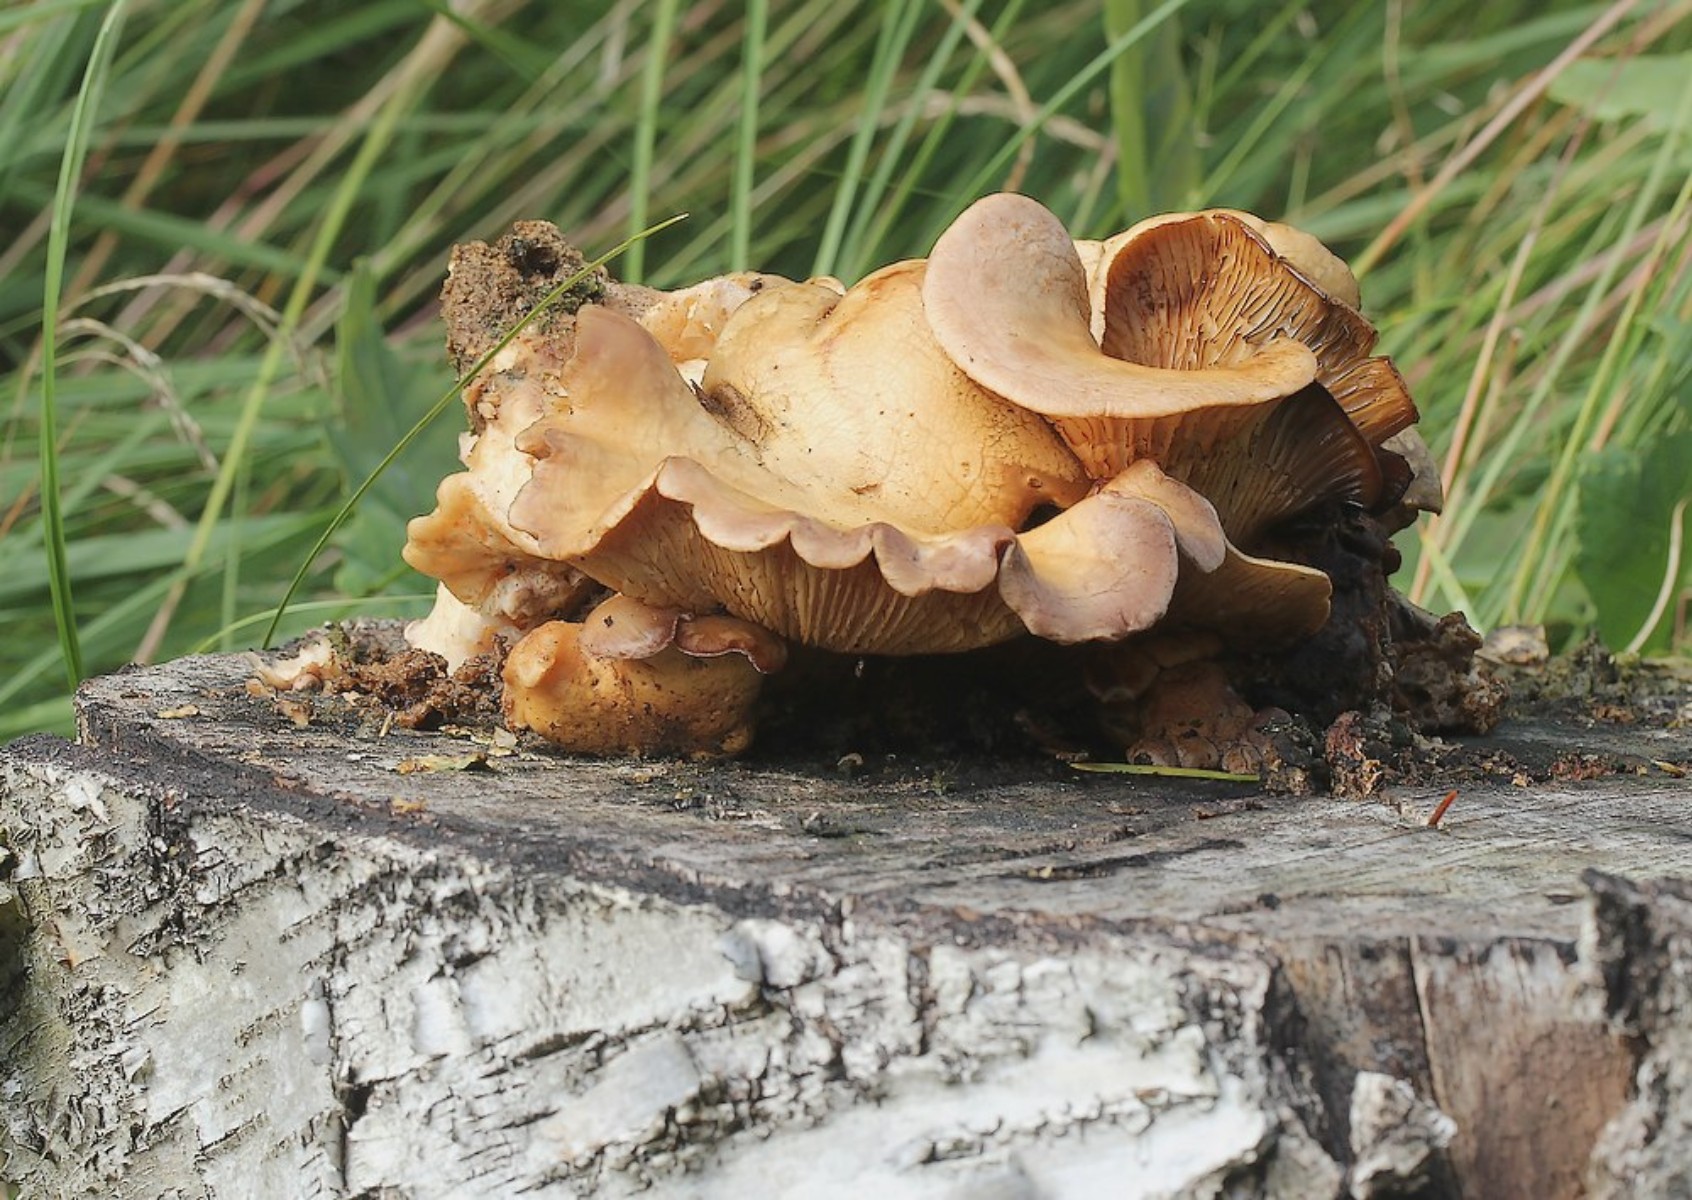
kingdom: Fungi
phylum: Basidiomycota
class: Agaricomycetes
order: Polyporales
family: Panaceae
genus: Panus
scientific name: Panus conchatus
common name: filtstokket læderhat
